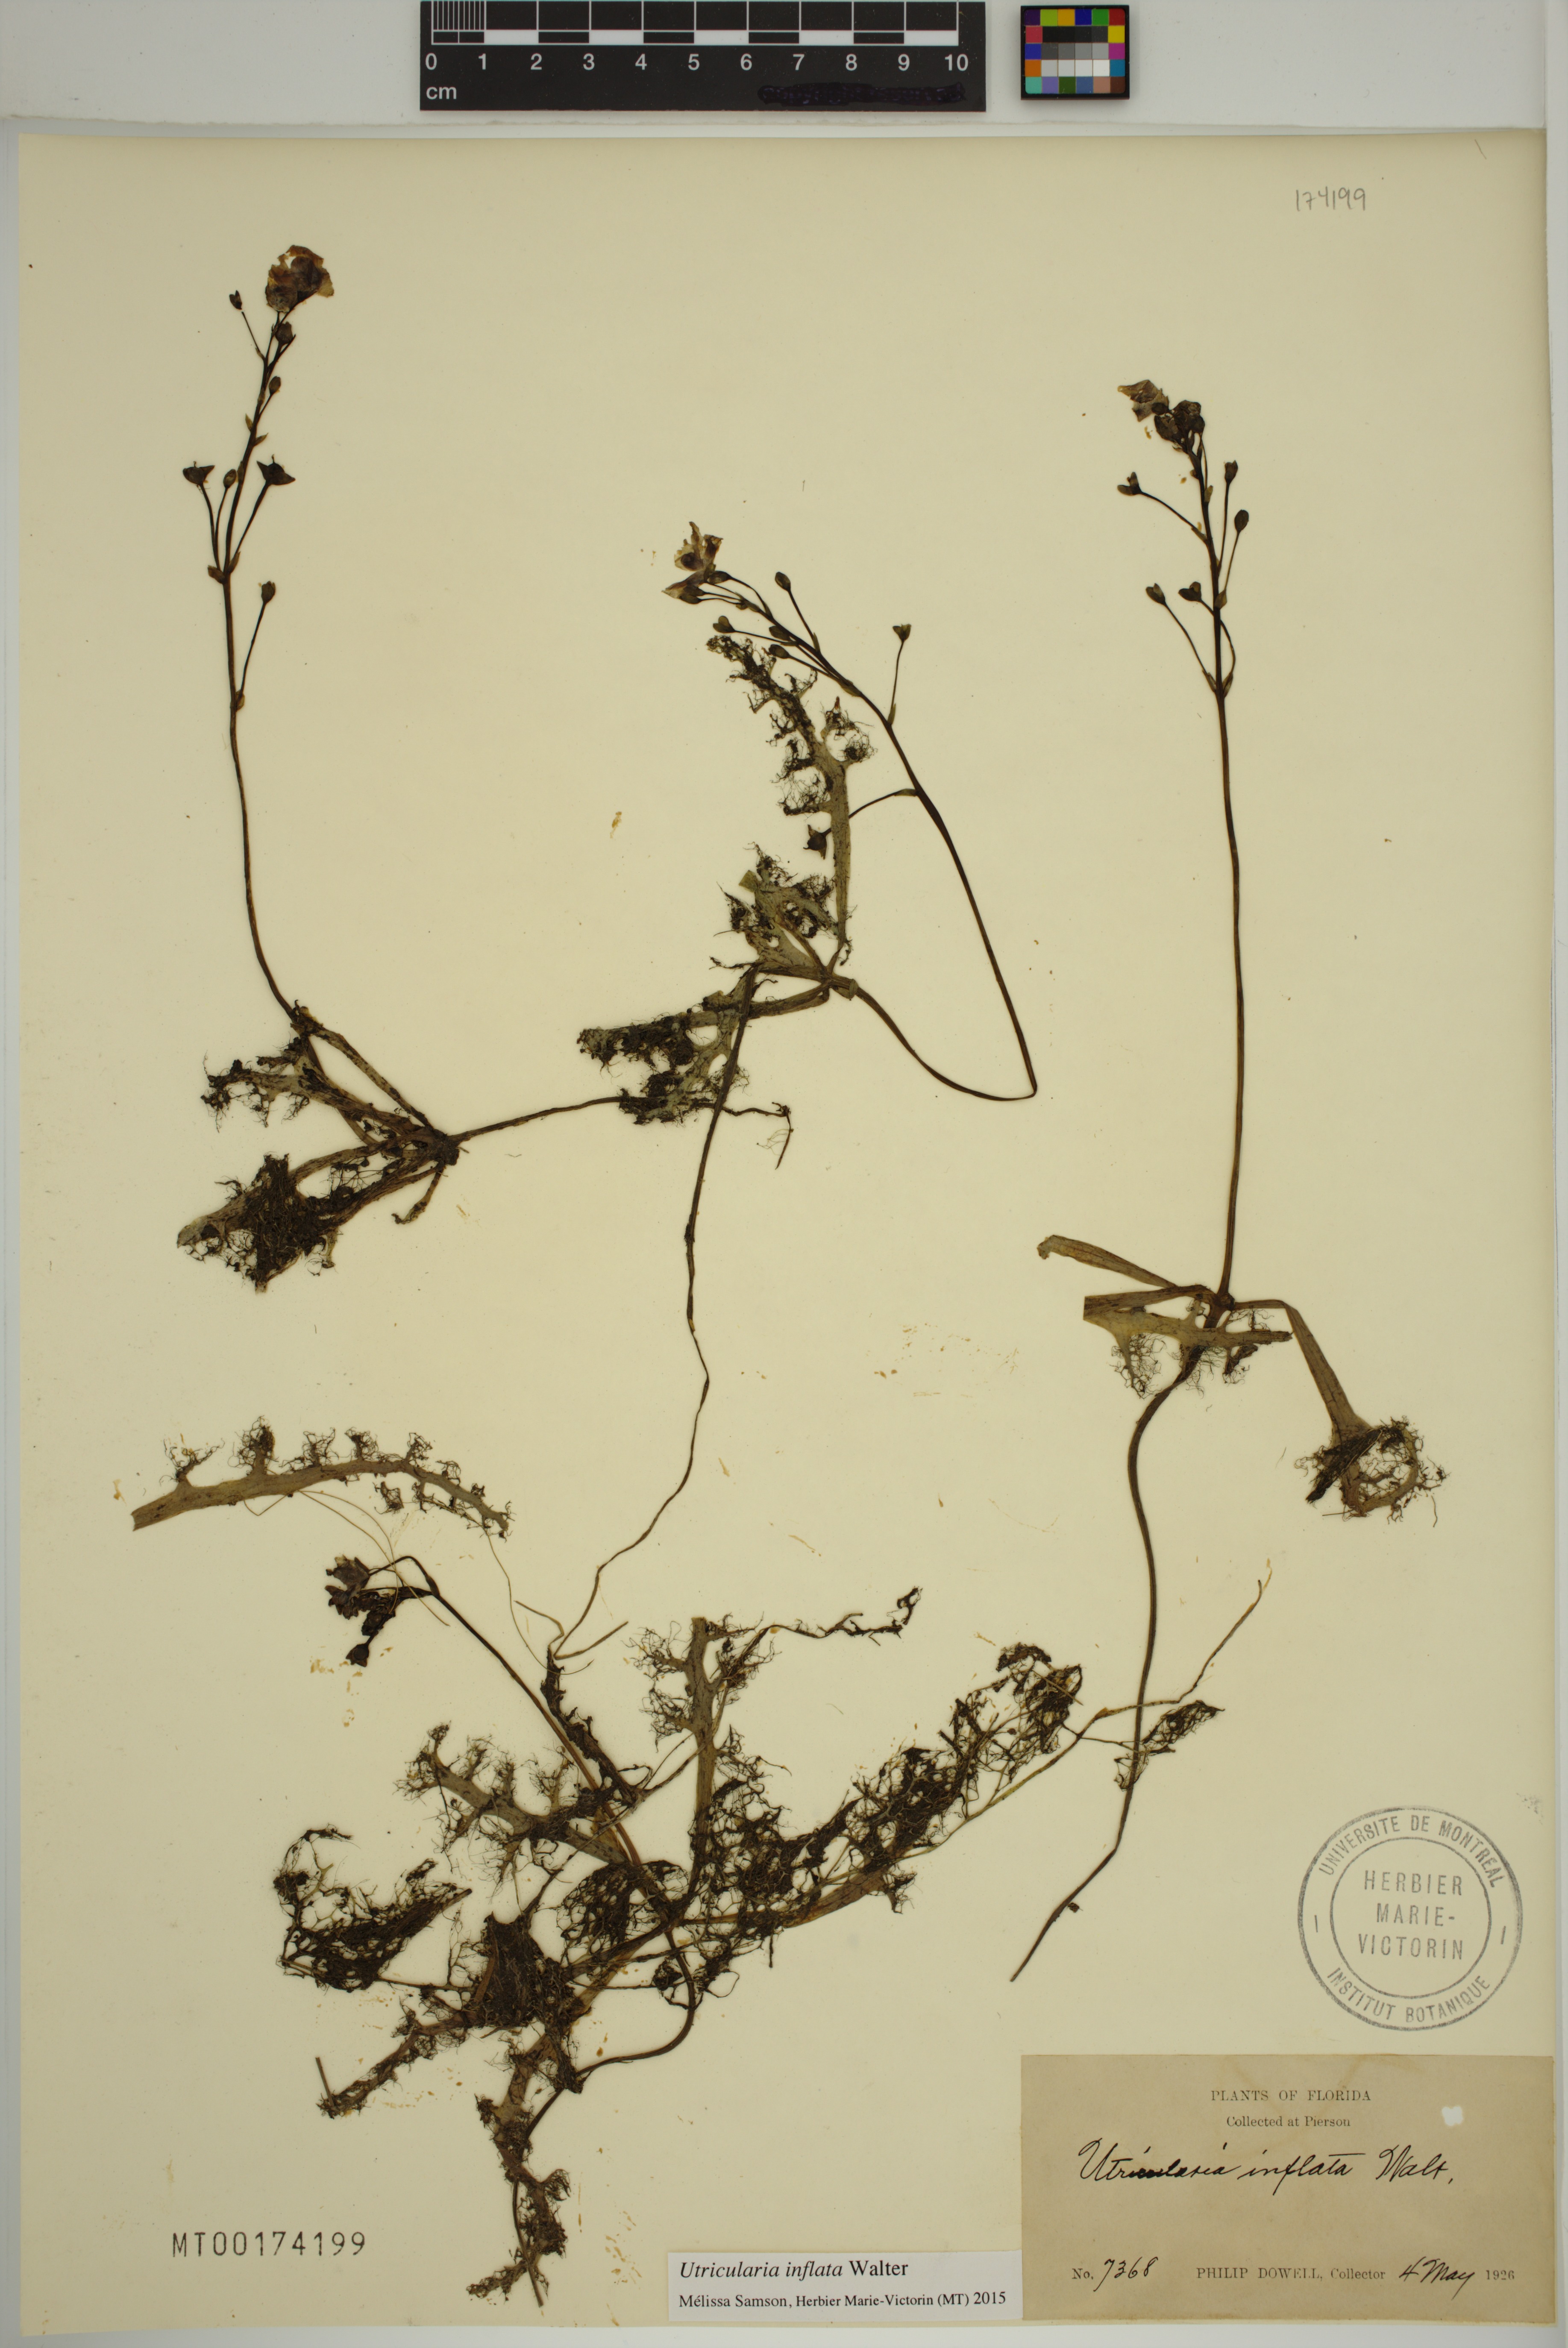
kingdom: Plantae
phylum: Tracheophyta
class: Magnoliopsida
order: Lamiales
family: Lentibulariaceae
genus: Utricularia
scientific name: Utricularia inflata
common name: Floating bladderwort
